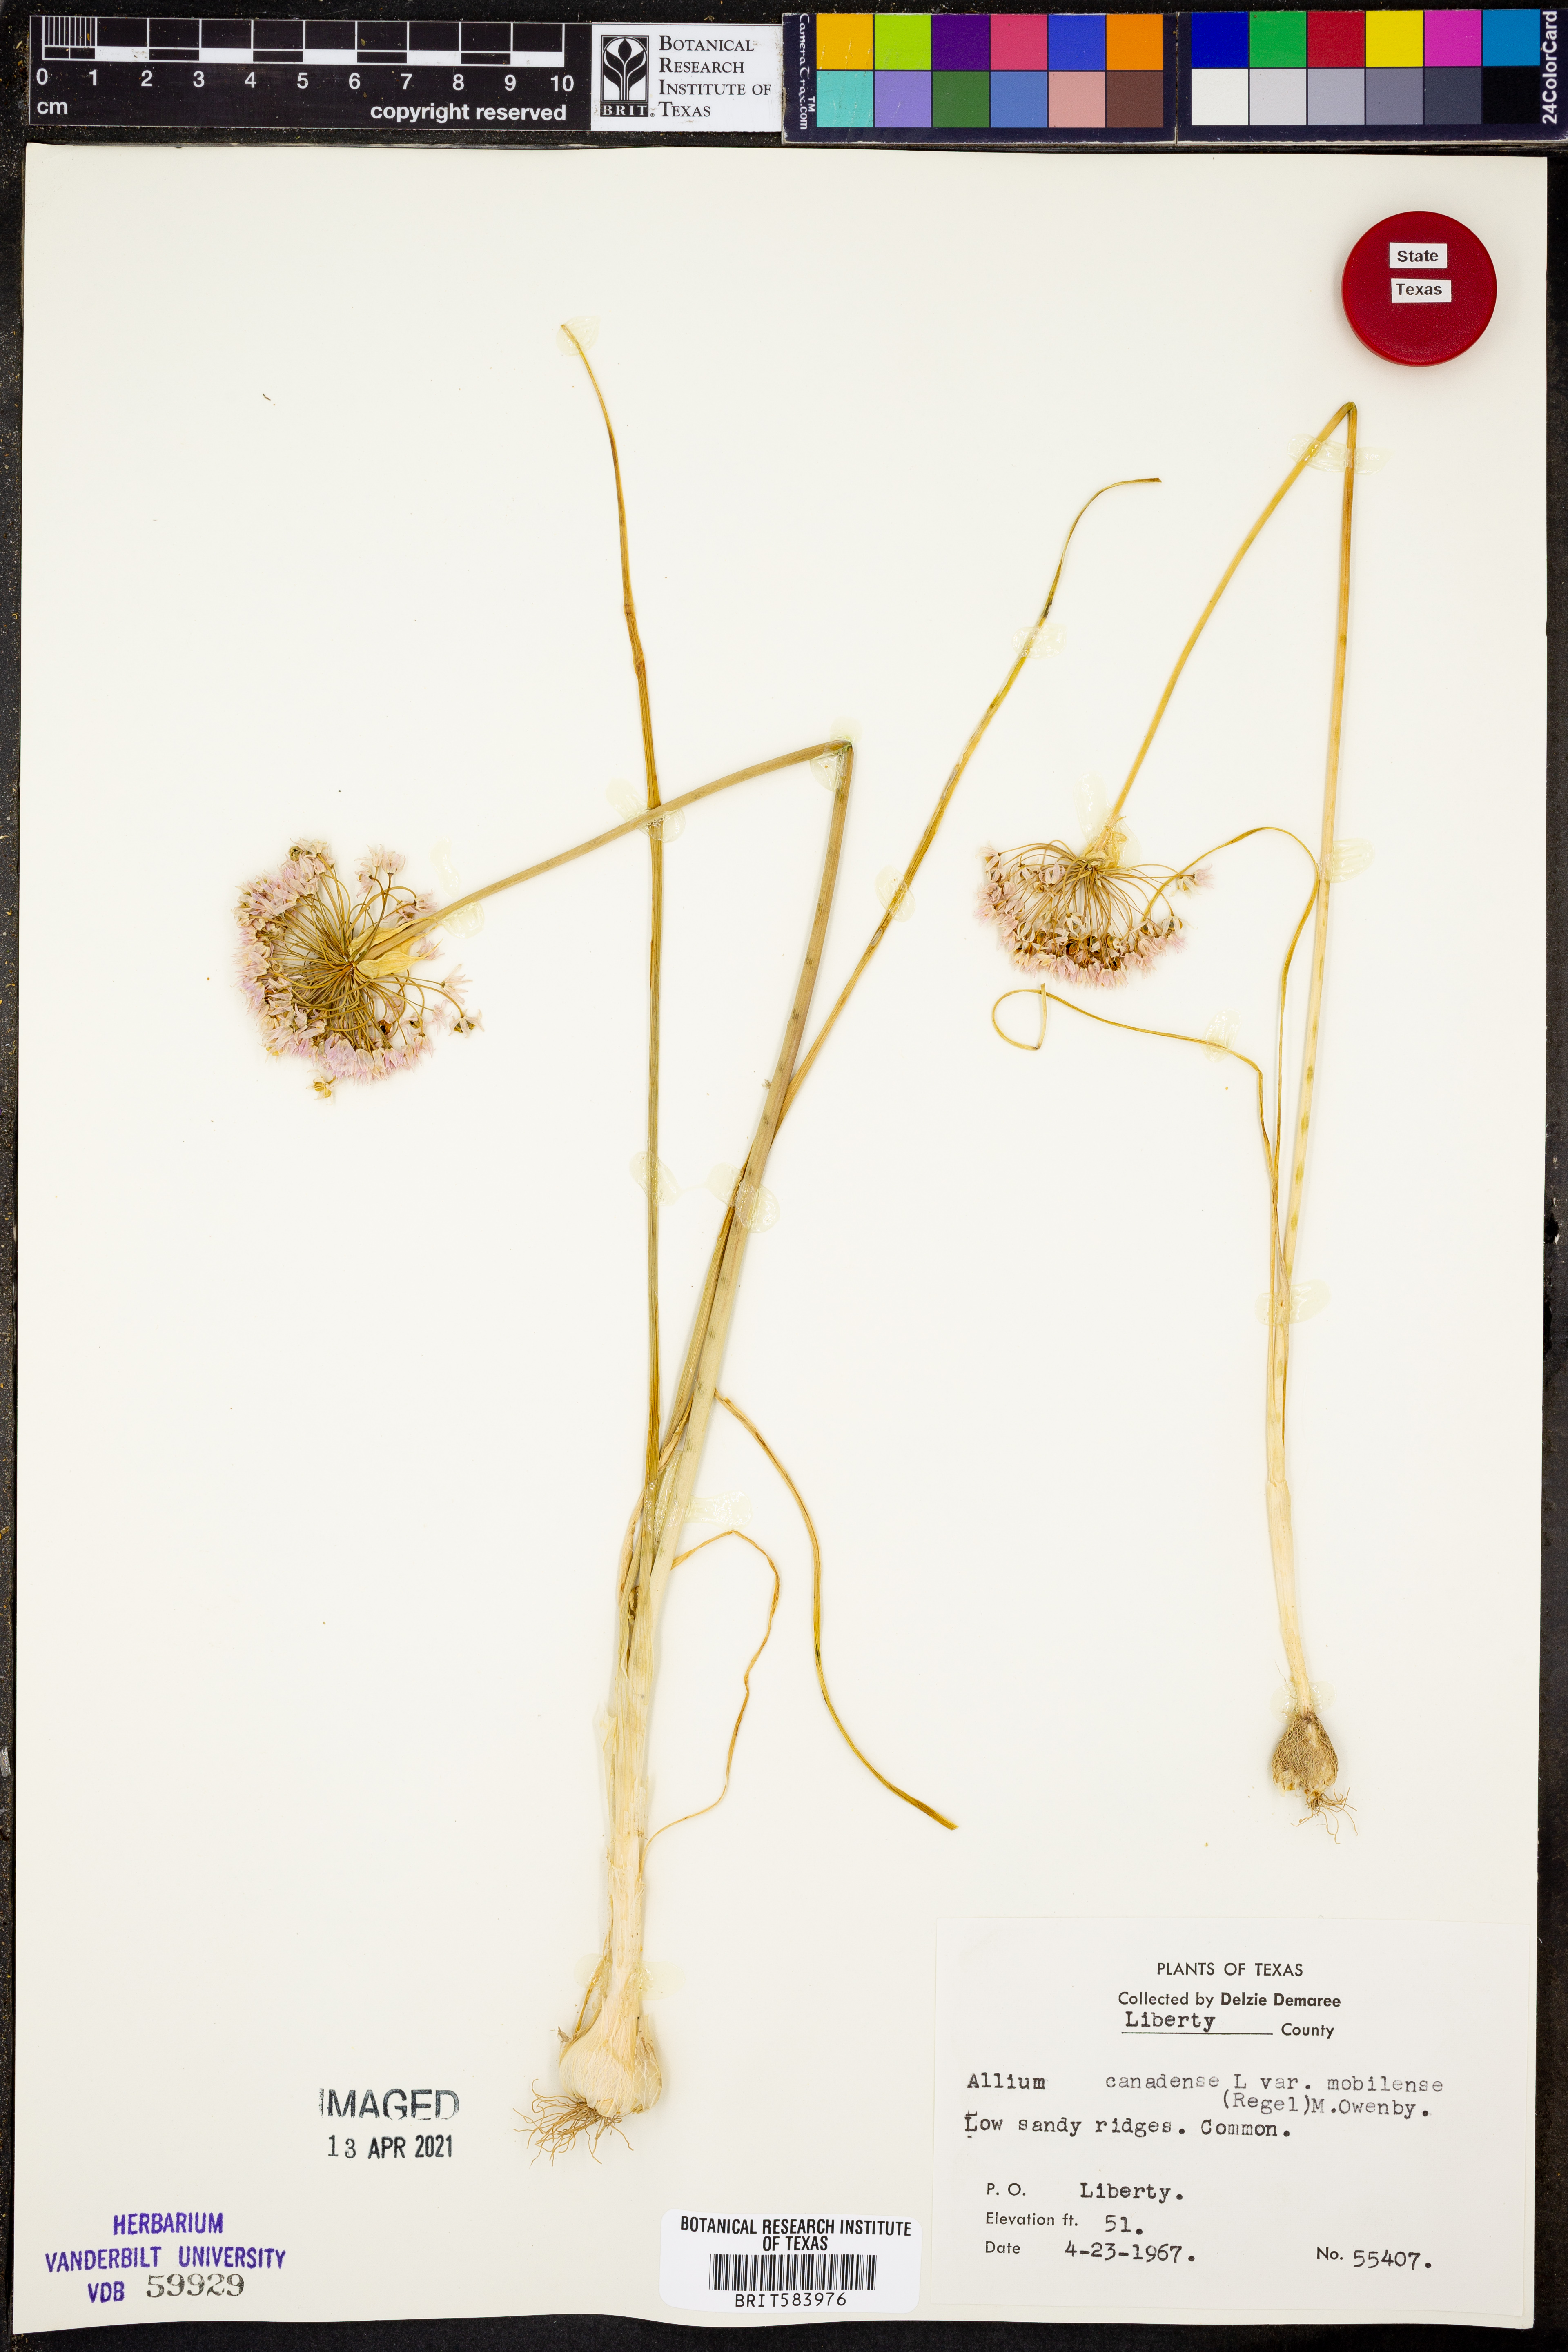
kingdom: Plantae
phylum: Tracheophyta
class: Liliopsida
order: Asparagales
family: Amaryllidaceae
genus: Allium
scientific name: Allium canadense
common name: Meadow garlic
